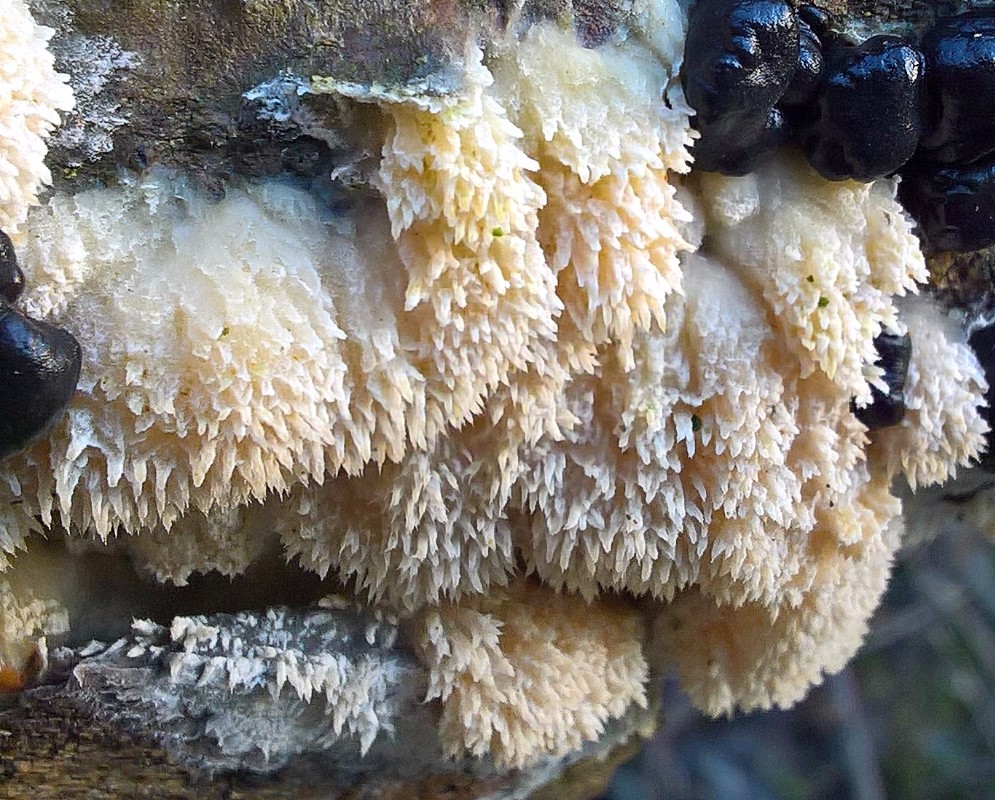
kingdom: Fungi
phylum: Basidiomycota
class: Agaricomycetes
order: Polyporales
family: Hyphodermataceae
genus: Hyphoderma
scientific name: Hyphoderma setigerum
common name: håret kalkskind
